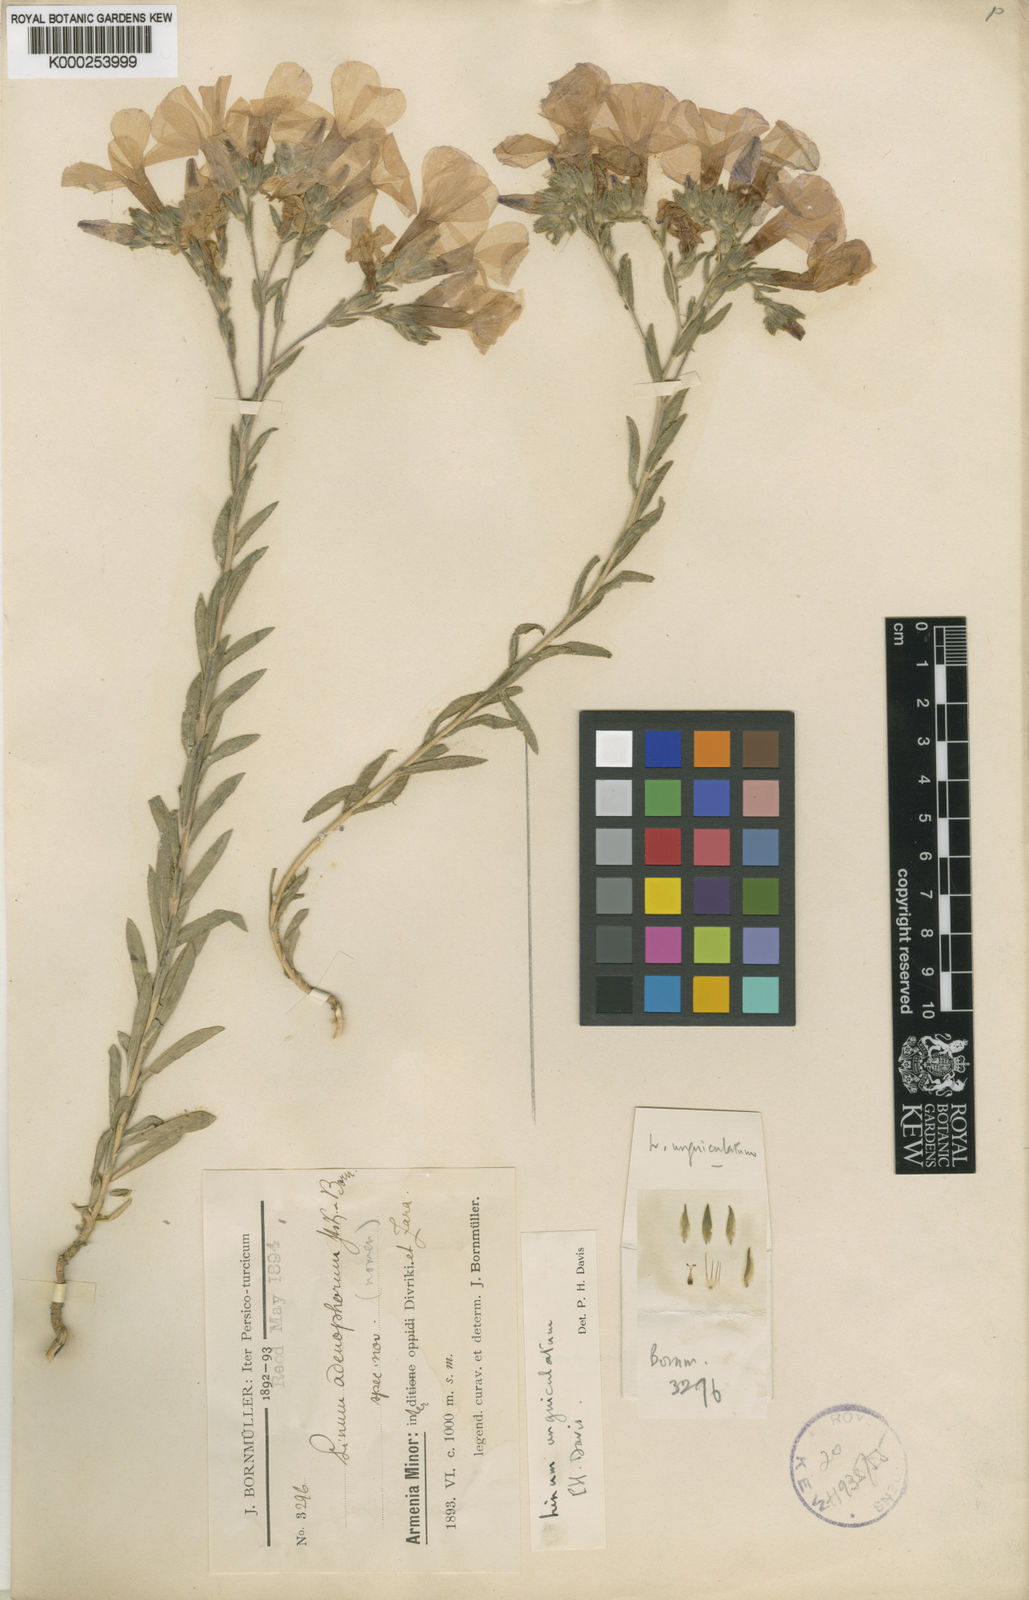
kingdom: Plantae
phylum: Tracheophyta
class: Magnoliopsida
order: Malpighiales
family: Linaceae
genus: Linum
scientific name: Linum unguiculatum
